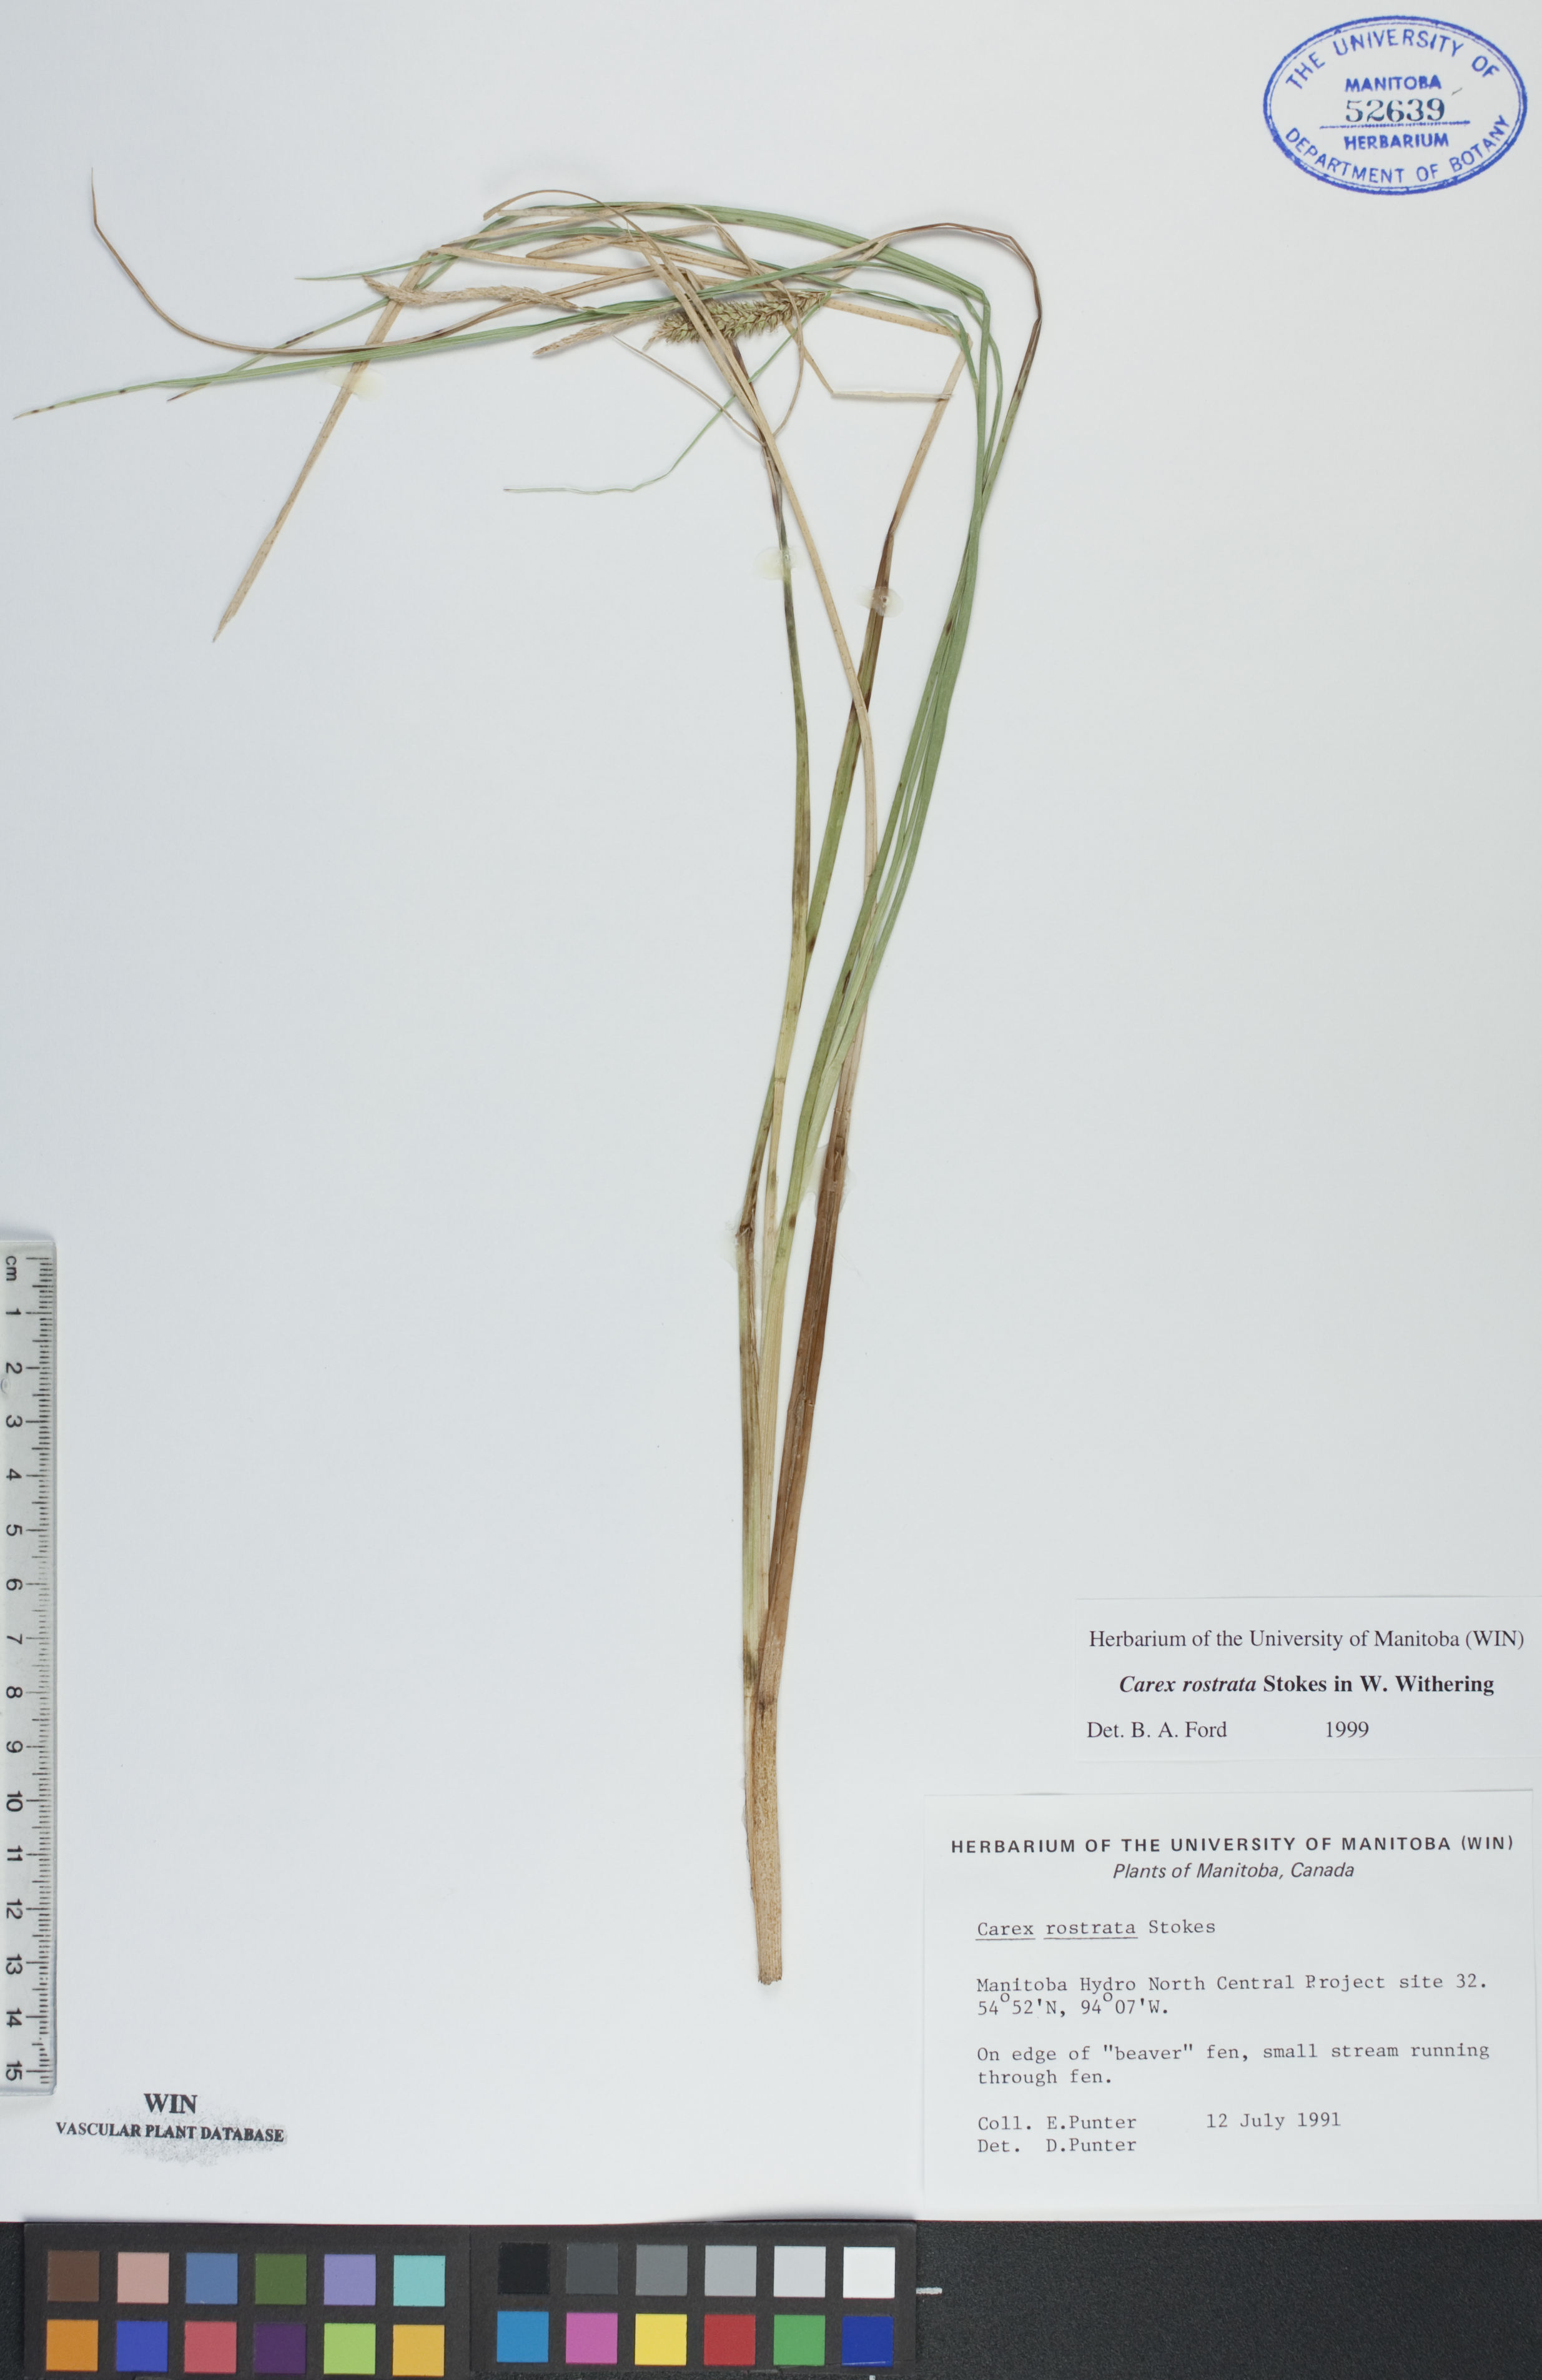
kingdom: Plantae
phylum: Tracheophyta
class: Liliopsida
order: Poales
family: Cyperaceae
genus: Carex
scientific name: Carex rostrata
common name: Bottle sedge
